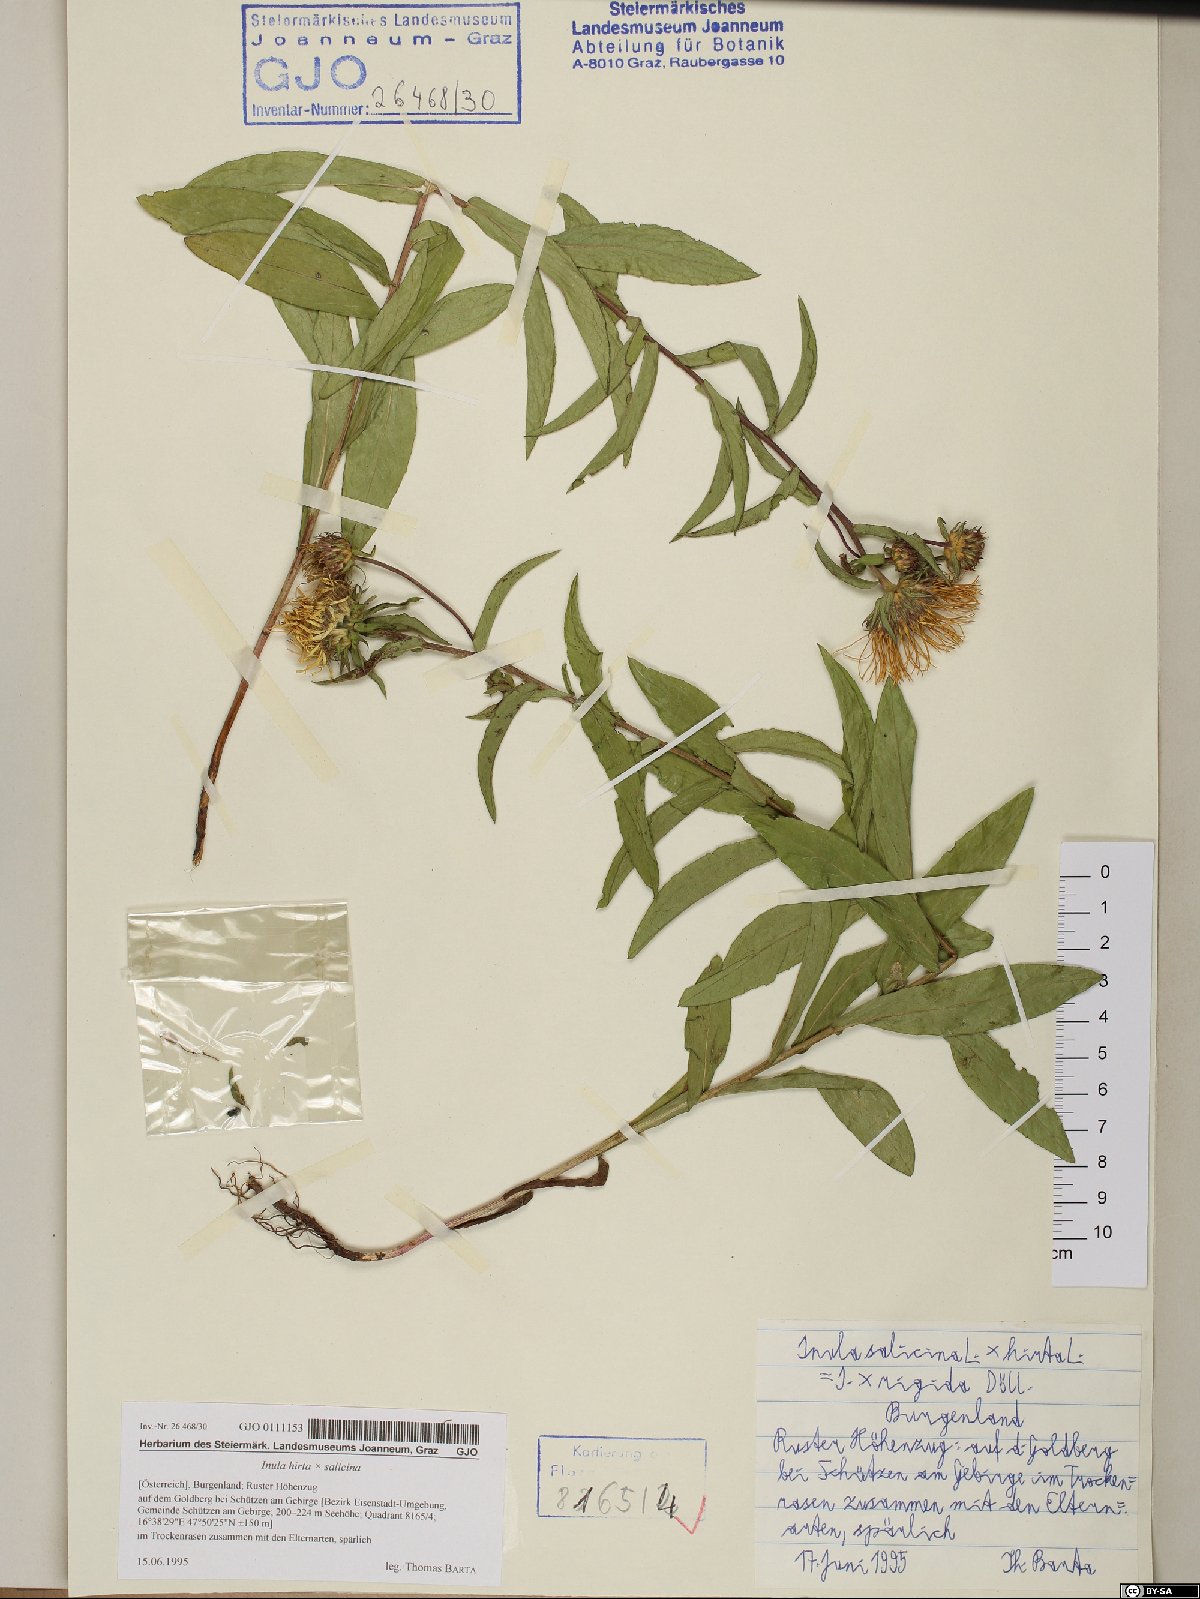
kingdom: Plantae
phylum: Tracheophyta
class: Magnoliopsida
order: Asterales
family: Asteraceae
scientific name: Asteraceae
